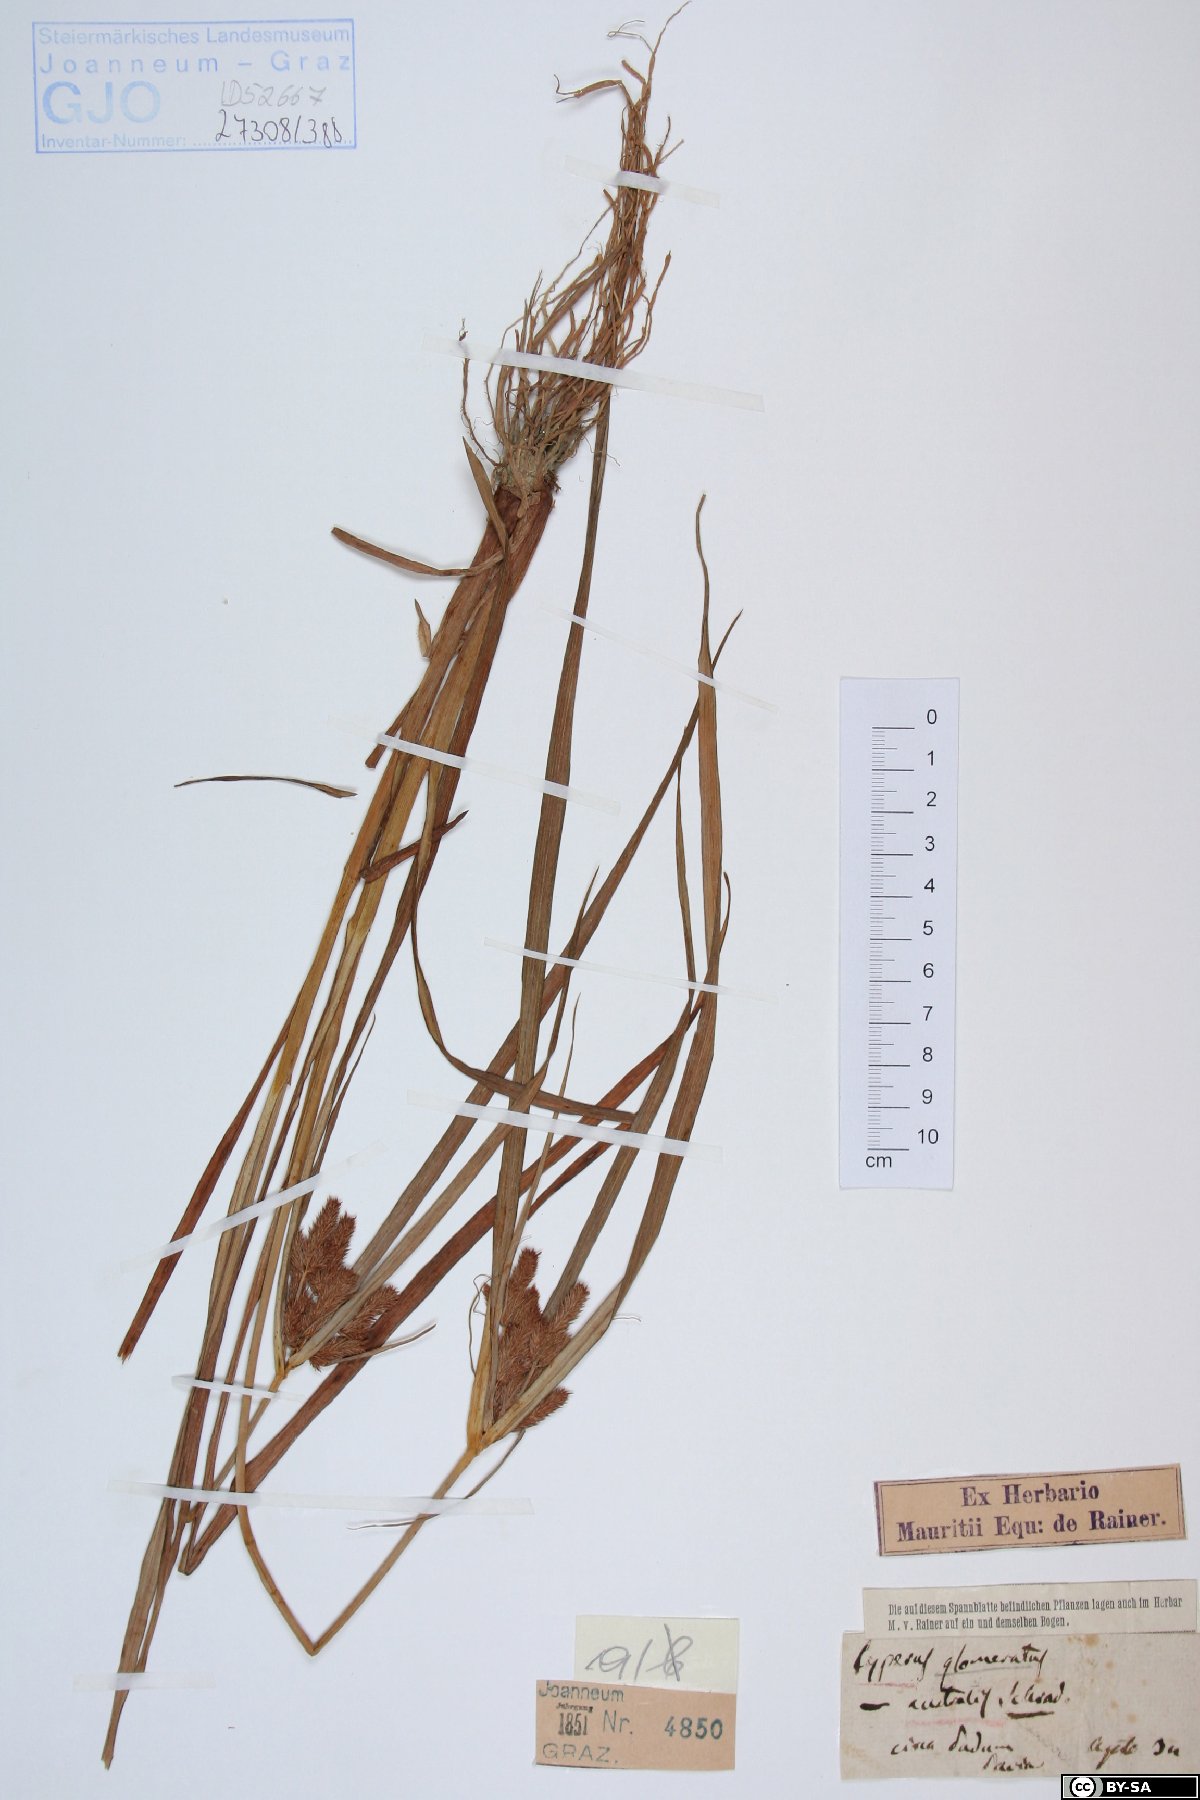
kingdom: Plantae
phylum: Tracheophyta
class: Liliopsida
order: Poales
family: Cyperaceae
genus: Cyperus
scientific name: Cyperus glomeratus
